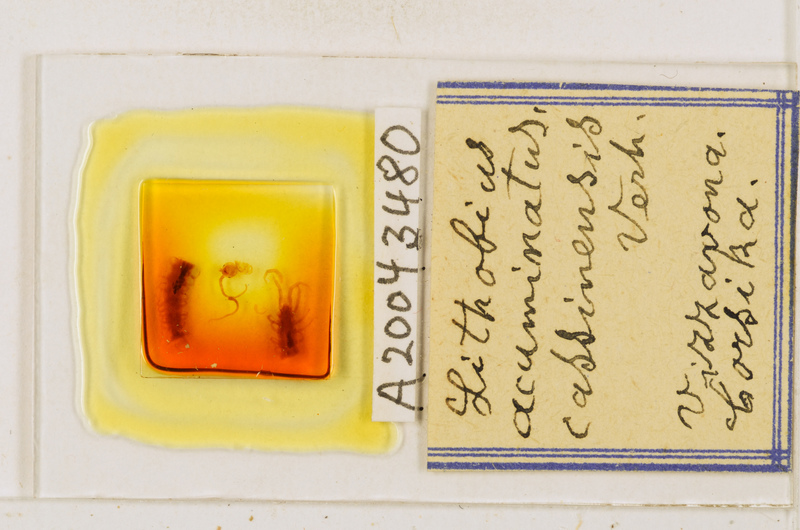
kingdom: Animalia
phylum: Arthropoda
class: Chilopoda
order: Lithobiomorpha
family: Lithobiidae
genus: Lithobius
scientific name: Lithobius acuminatus
